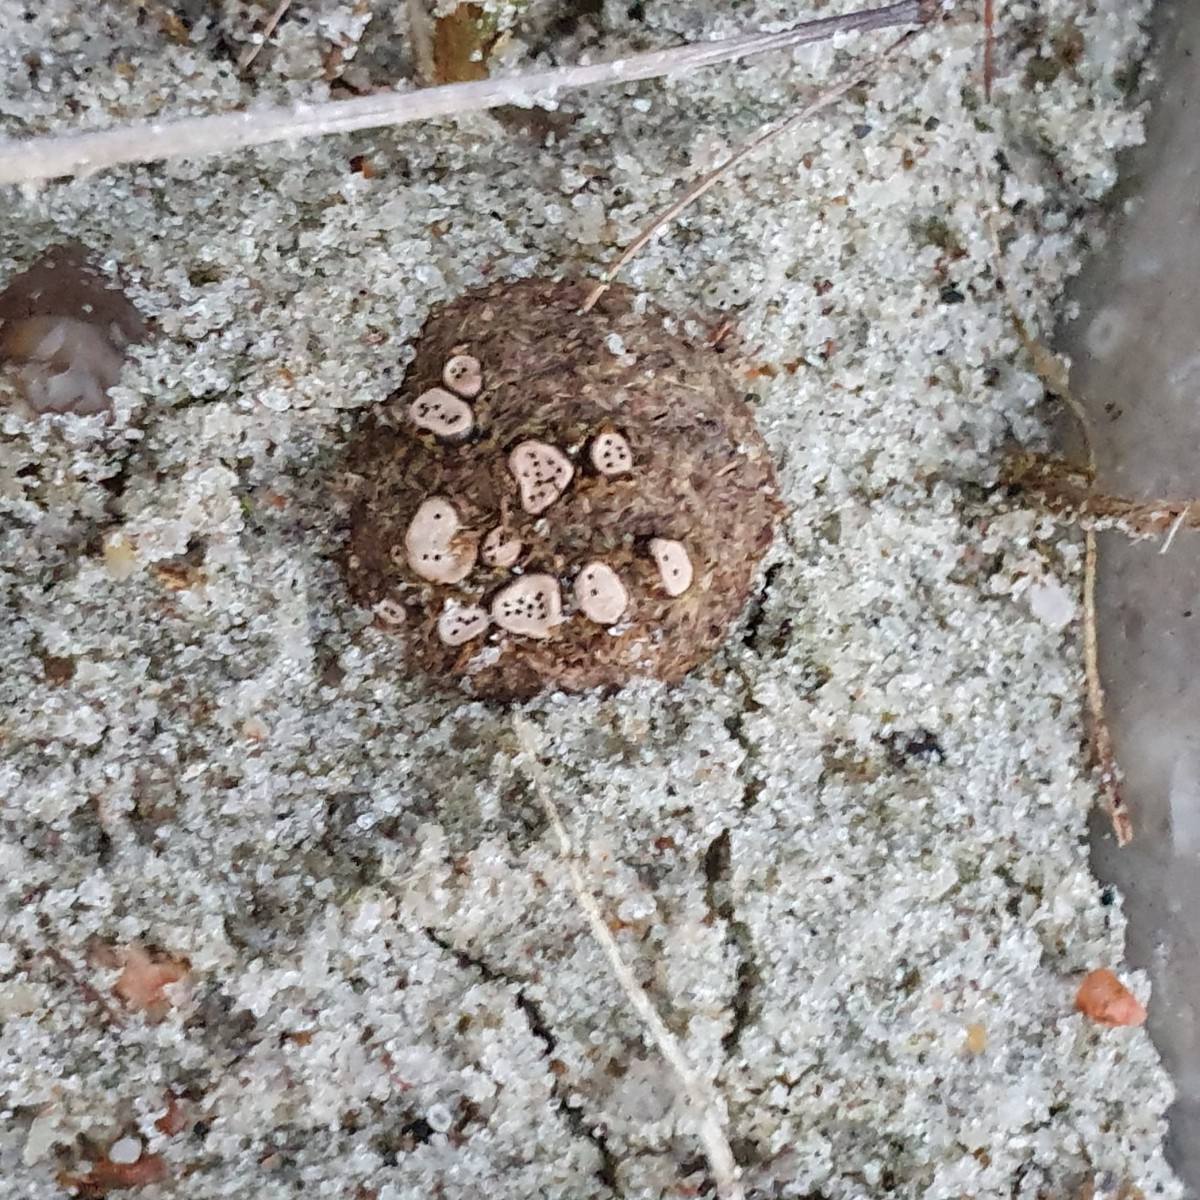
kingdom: Fungi
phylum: Ascomycota
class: Sordariomycetes
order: Xylariales
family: Xylariaceae
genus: Poronia
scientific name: Poronia erici
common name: hare-priksvamp
